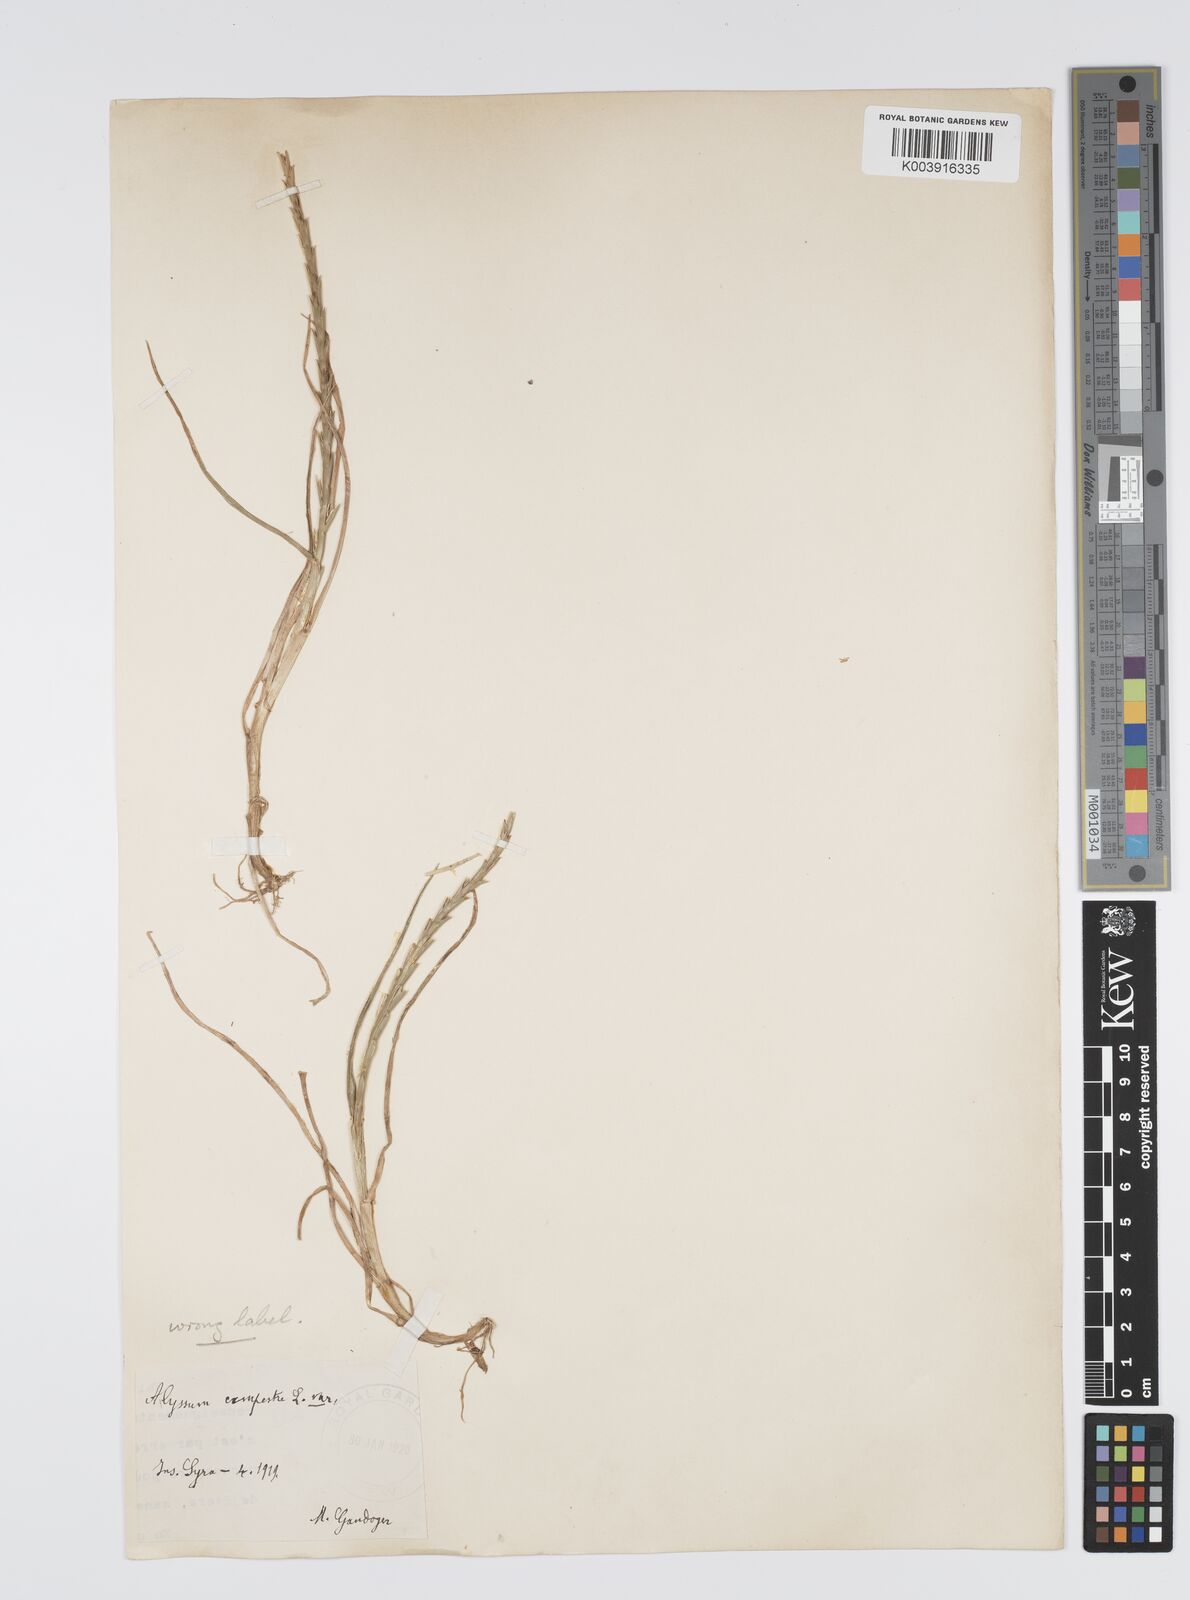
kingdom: Plantae
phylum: Tracheophyta
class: Liliopsida
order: Poales
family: Poaceae
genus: Lolium
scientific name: Lolium rigidum
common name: Wimmera ryegrass
